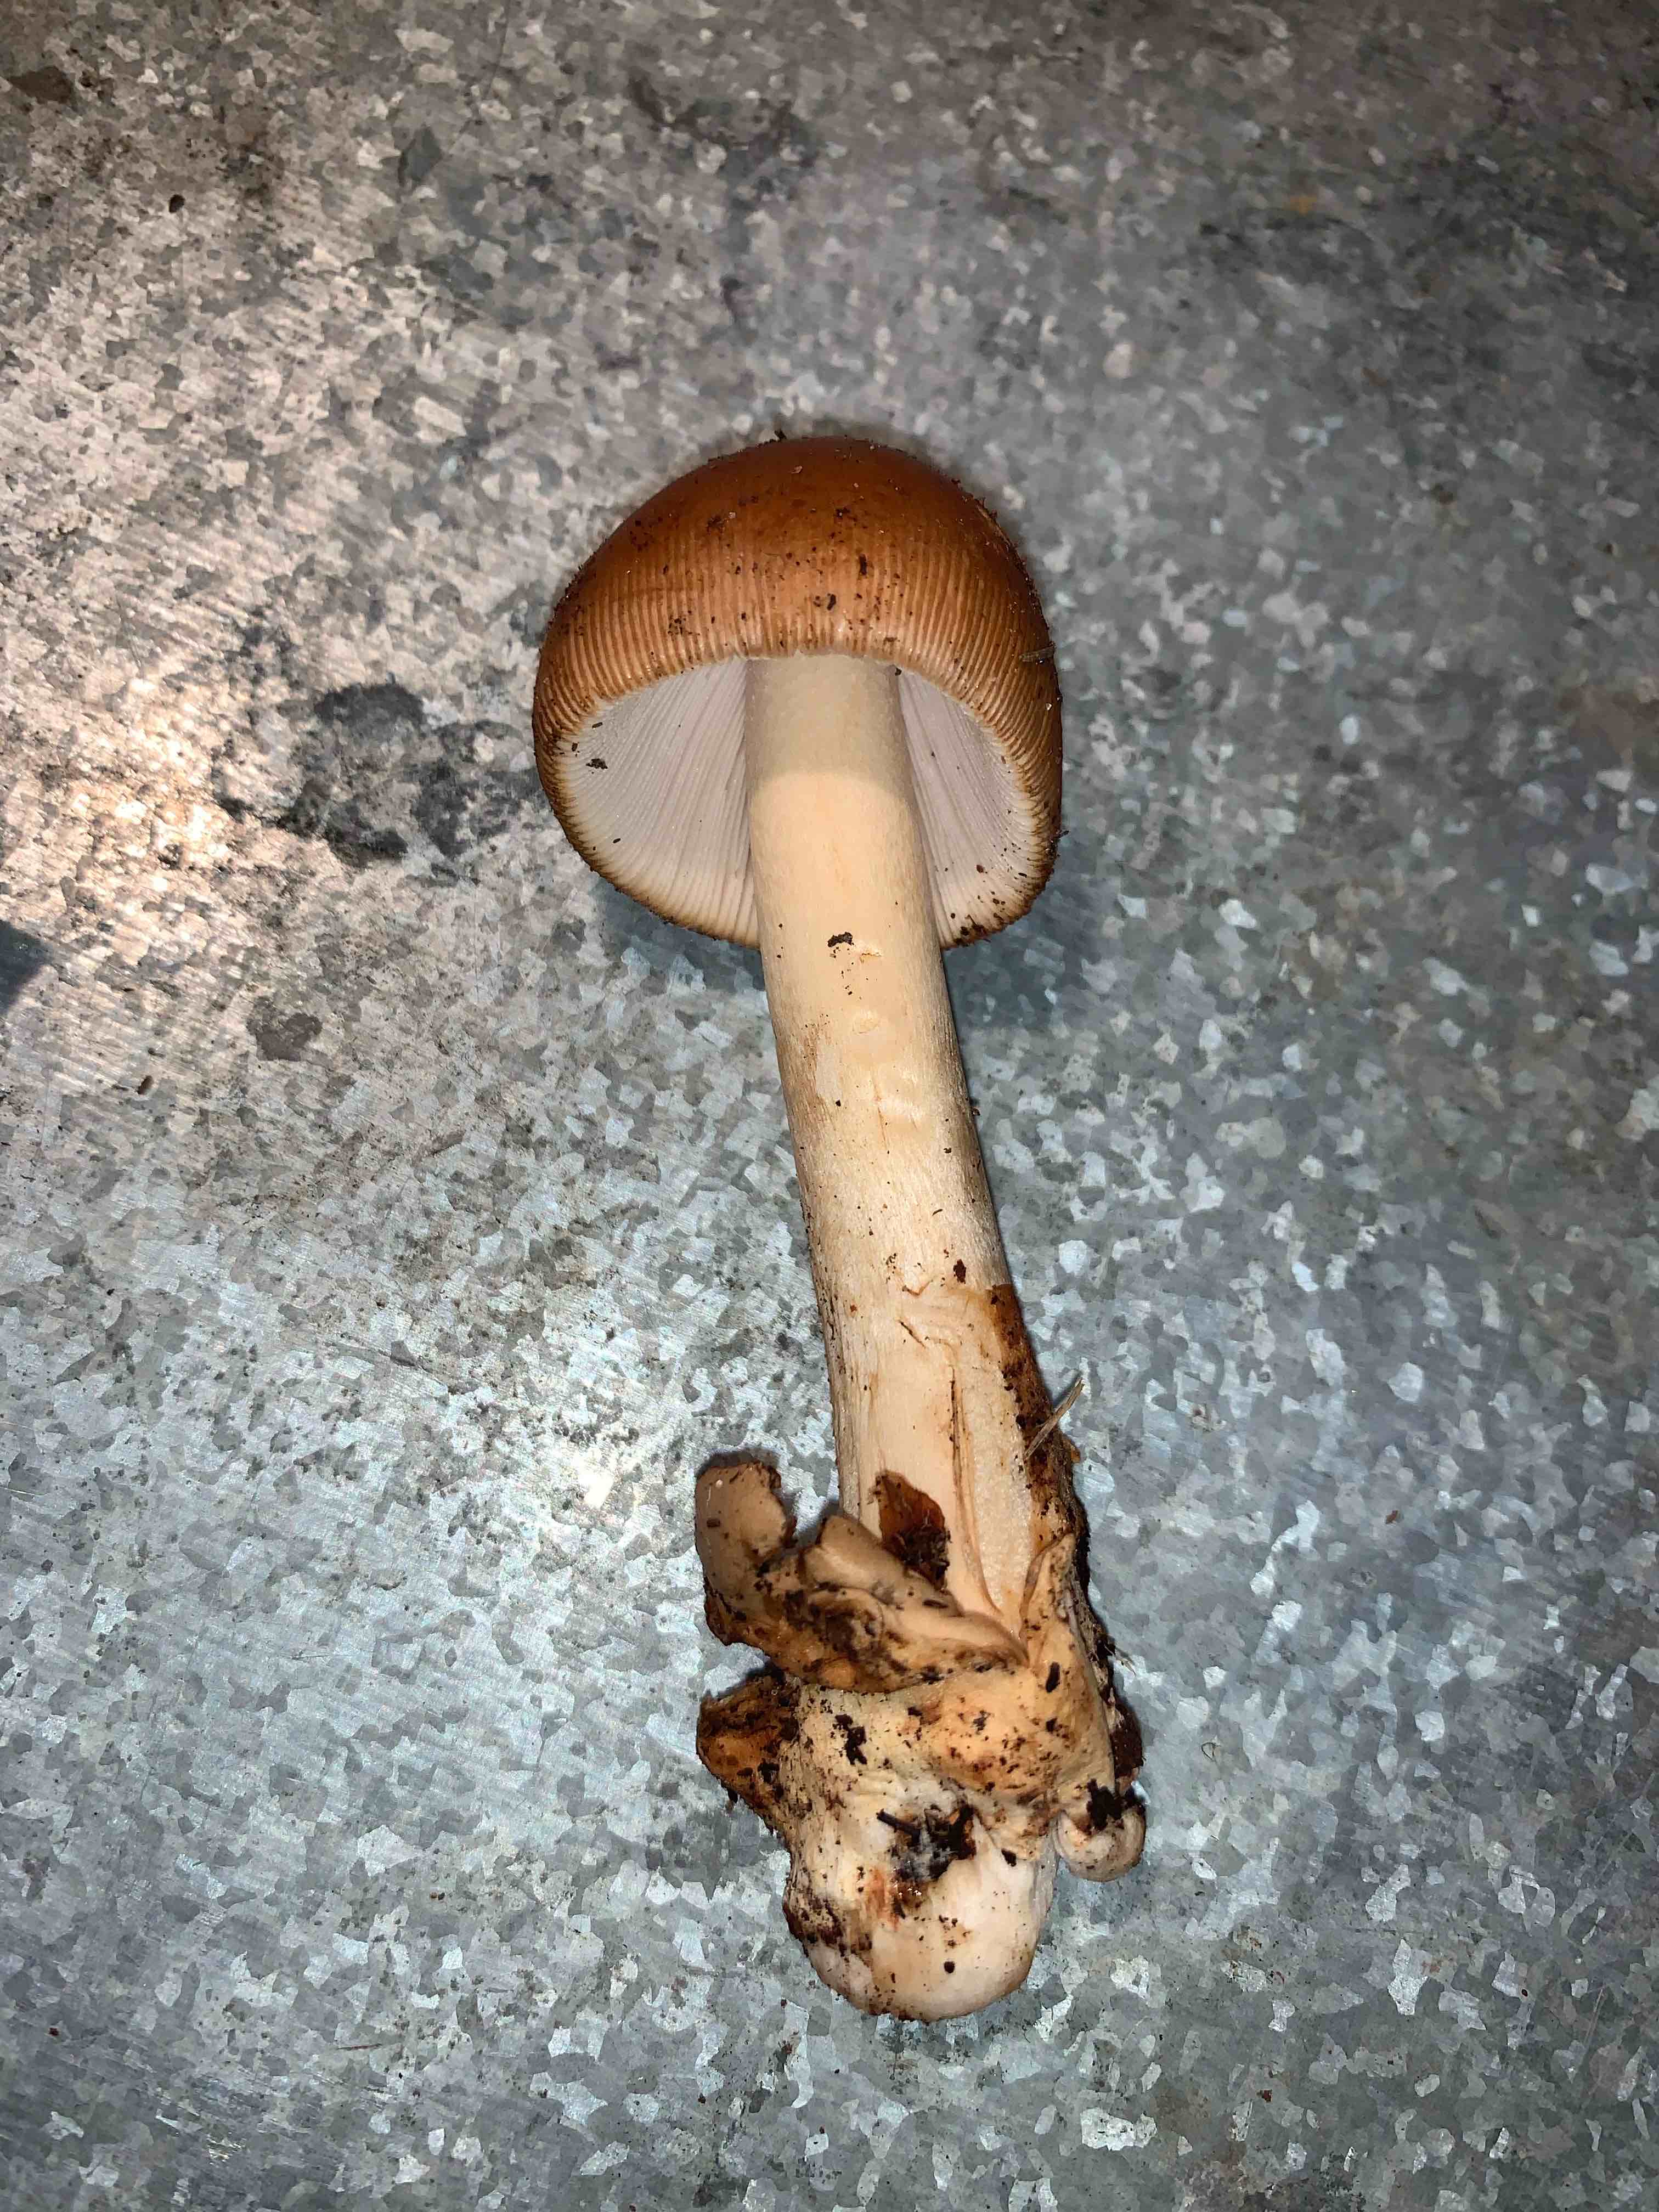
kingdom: Fungi
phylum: Basidiomycota
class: Agaricomycetes
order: Agaricales
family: Amanitaceae
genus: Amanita
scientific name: Amanita fulva
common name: brun kam-fluesvamp
